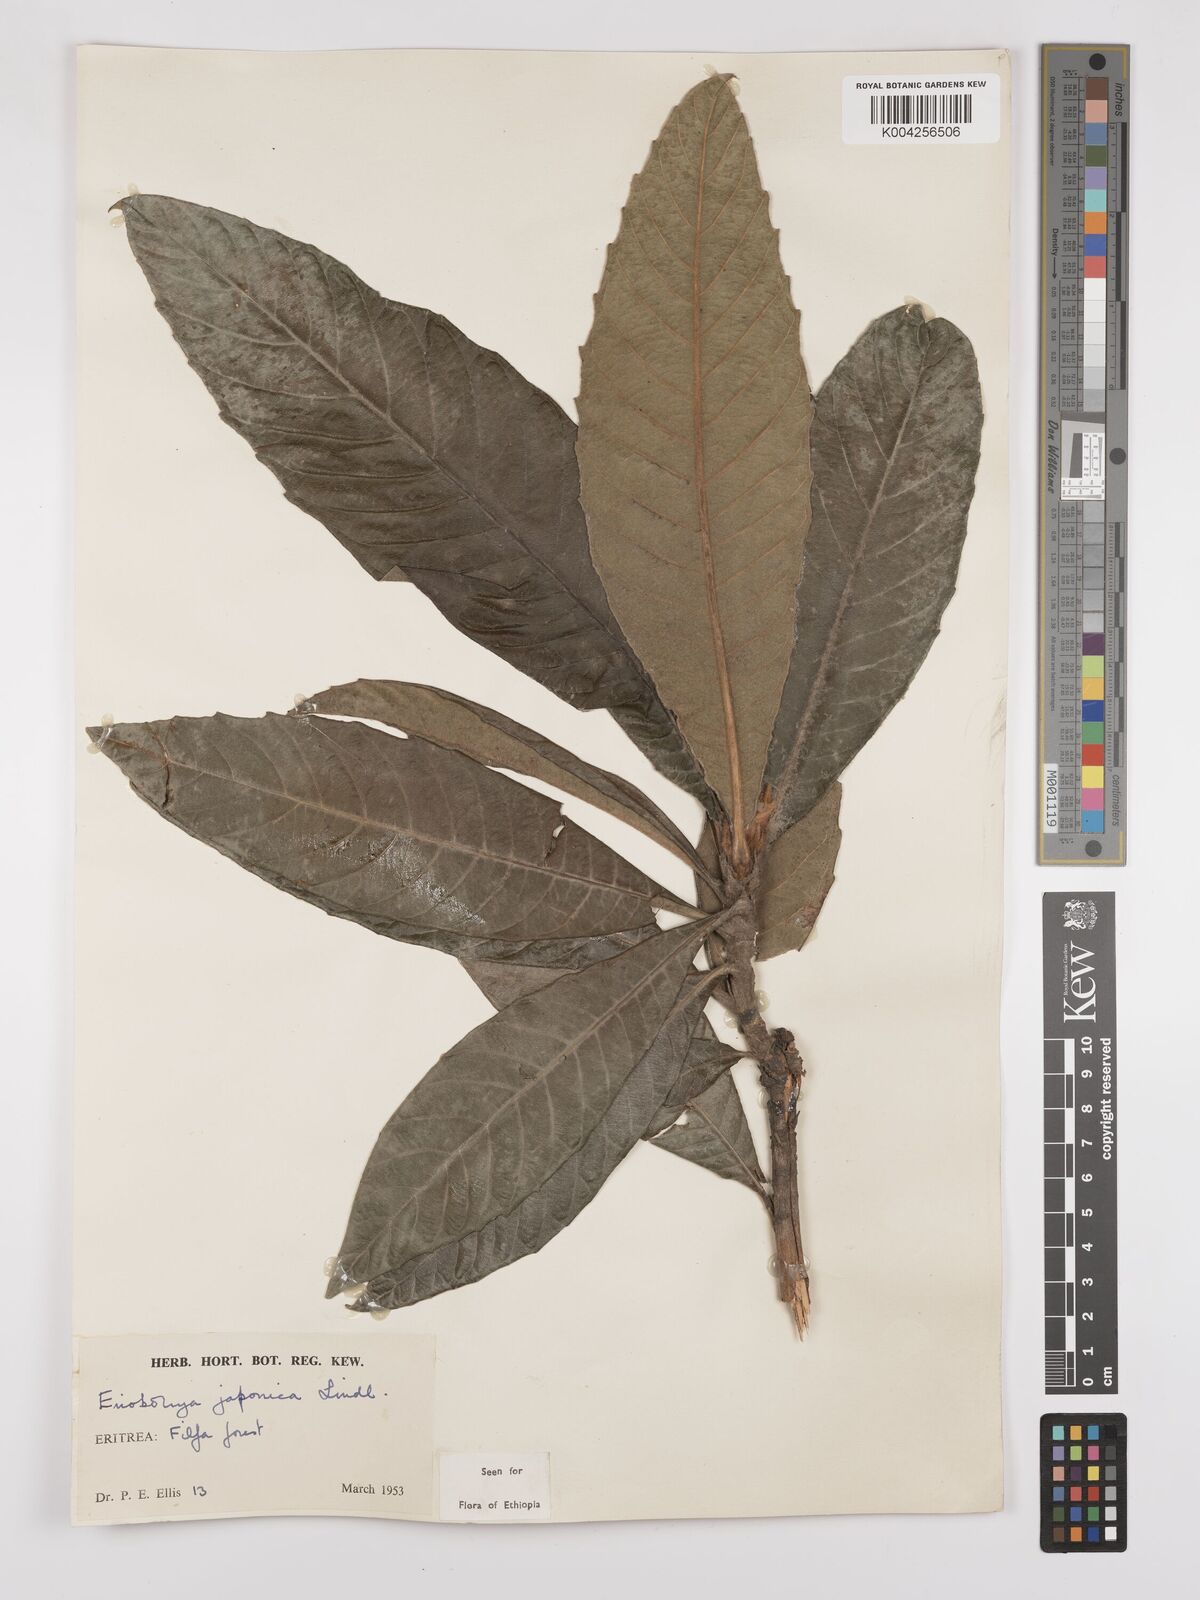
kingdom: Plantae
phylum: Tracheophyta
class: Magnoliopsida
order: Rosales
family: Rosaceae
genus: Rhaphiolepis
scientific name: Rhaphiolepis bibas
